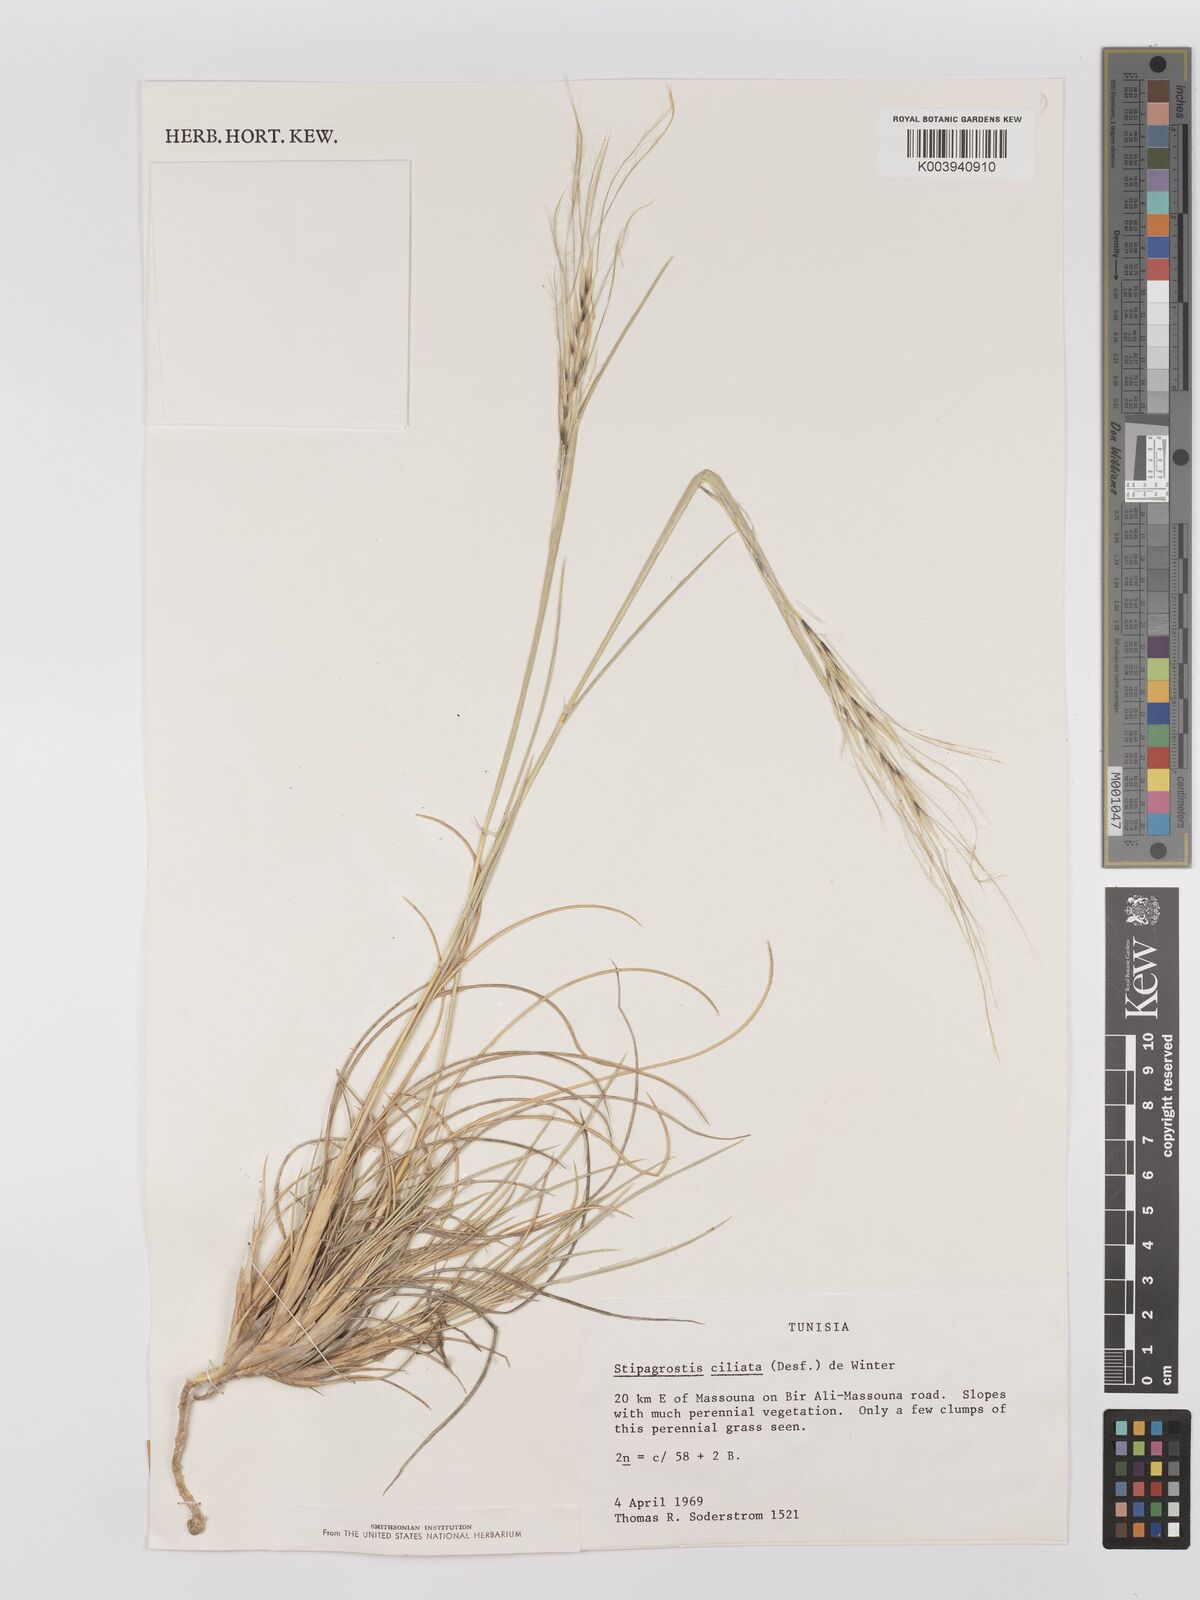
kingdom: Plantae
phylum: Tracheophyta
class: Liliopsida
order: Poales
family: Poaceae
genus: Stipagrostis
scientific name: Stipagrostis ciliata
